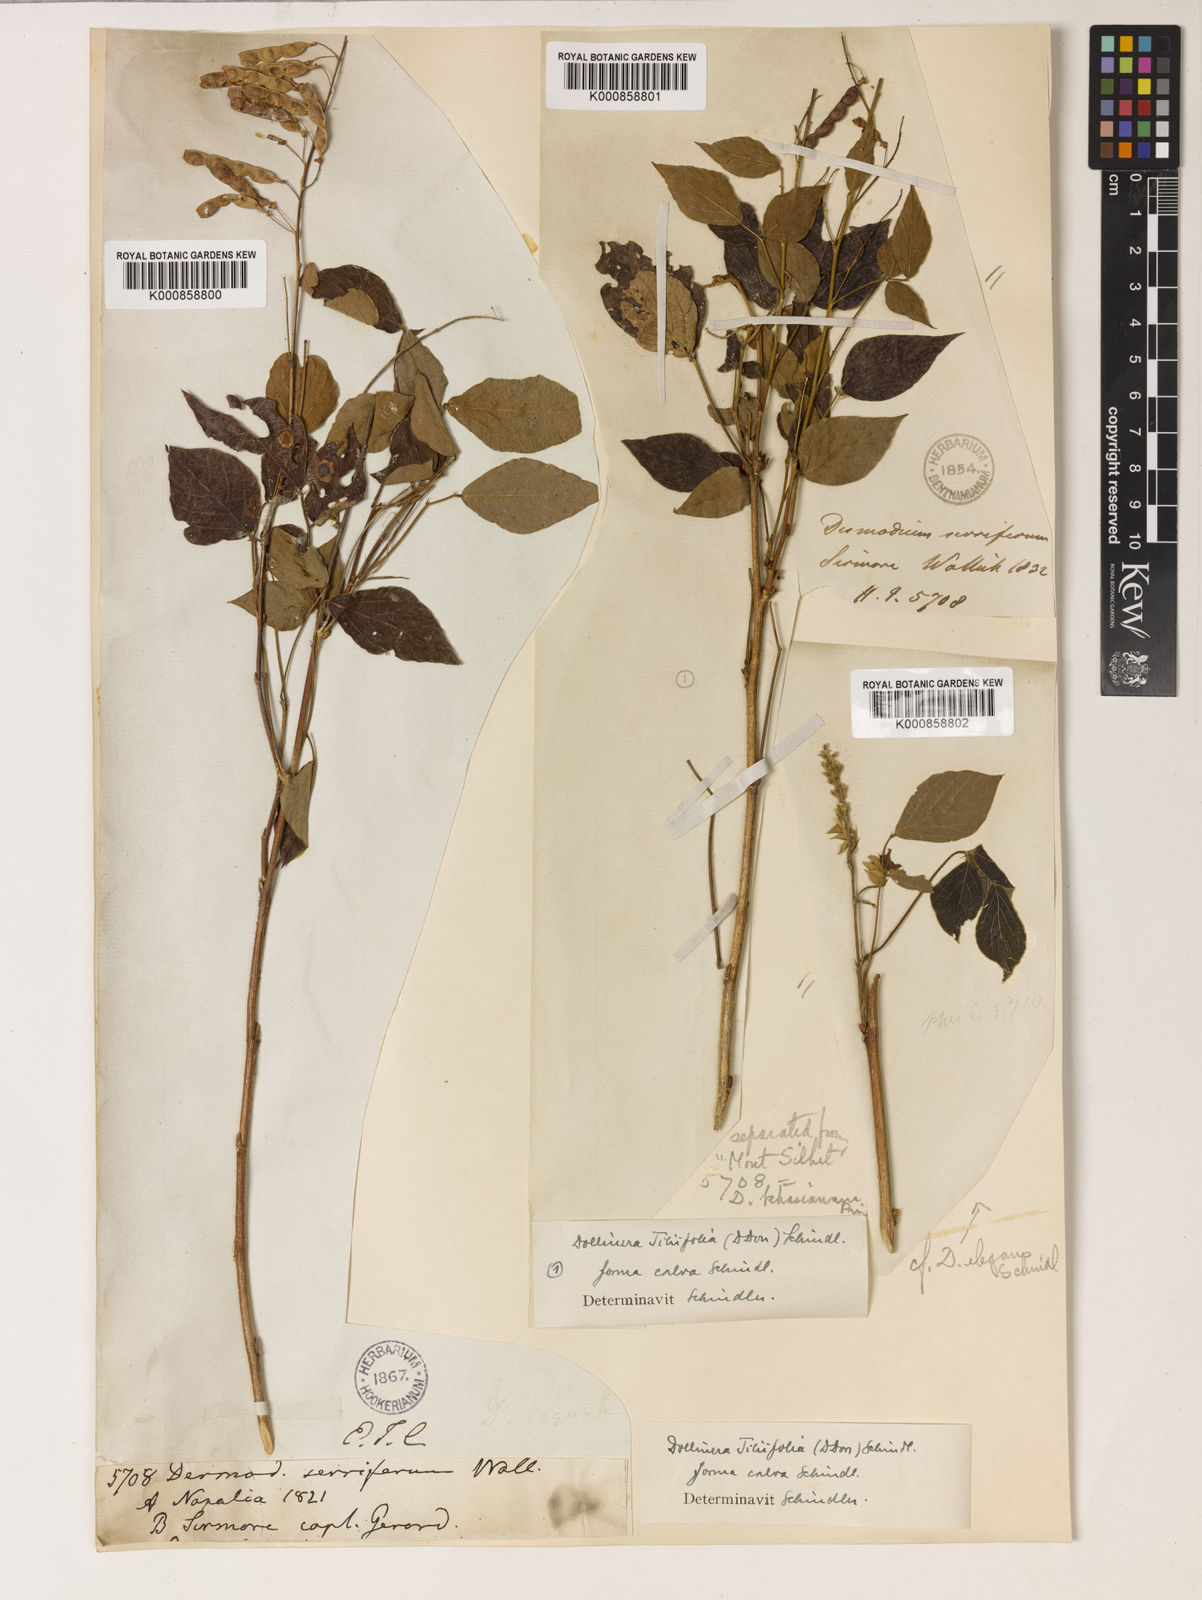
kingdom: Plantae
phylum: Tracheophyta
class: Magnoliopsida
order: Fabales
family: Fabaceae
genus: Sunhangia
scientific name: Sunhangia elegans
